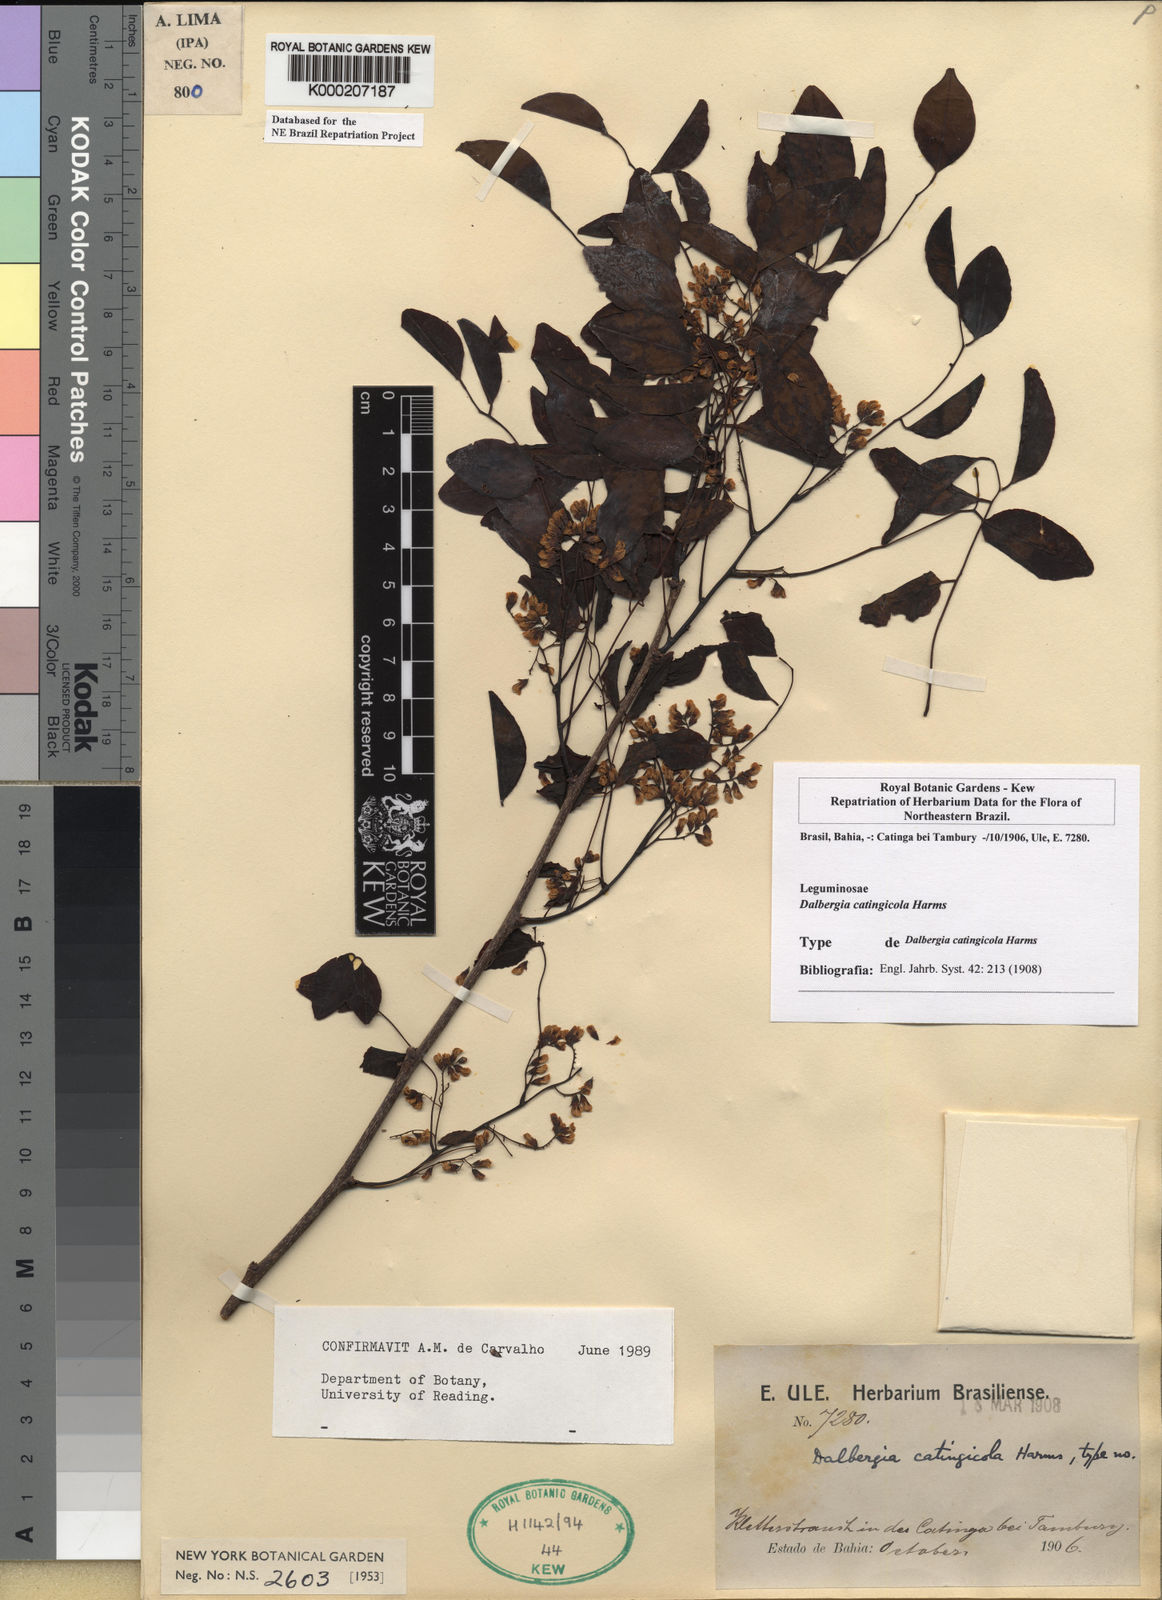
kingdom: Plantae
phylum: Tracheophyta
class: Magnoliopsida
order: Fabales
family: Fabaceae
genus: Dalbergia
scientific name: Dalbergia catingicola
